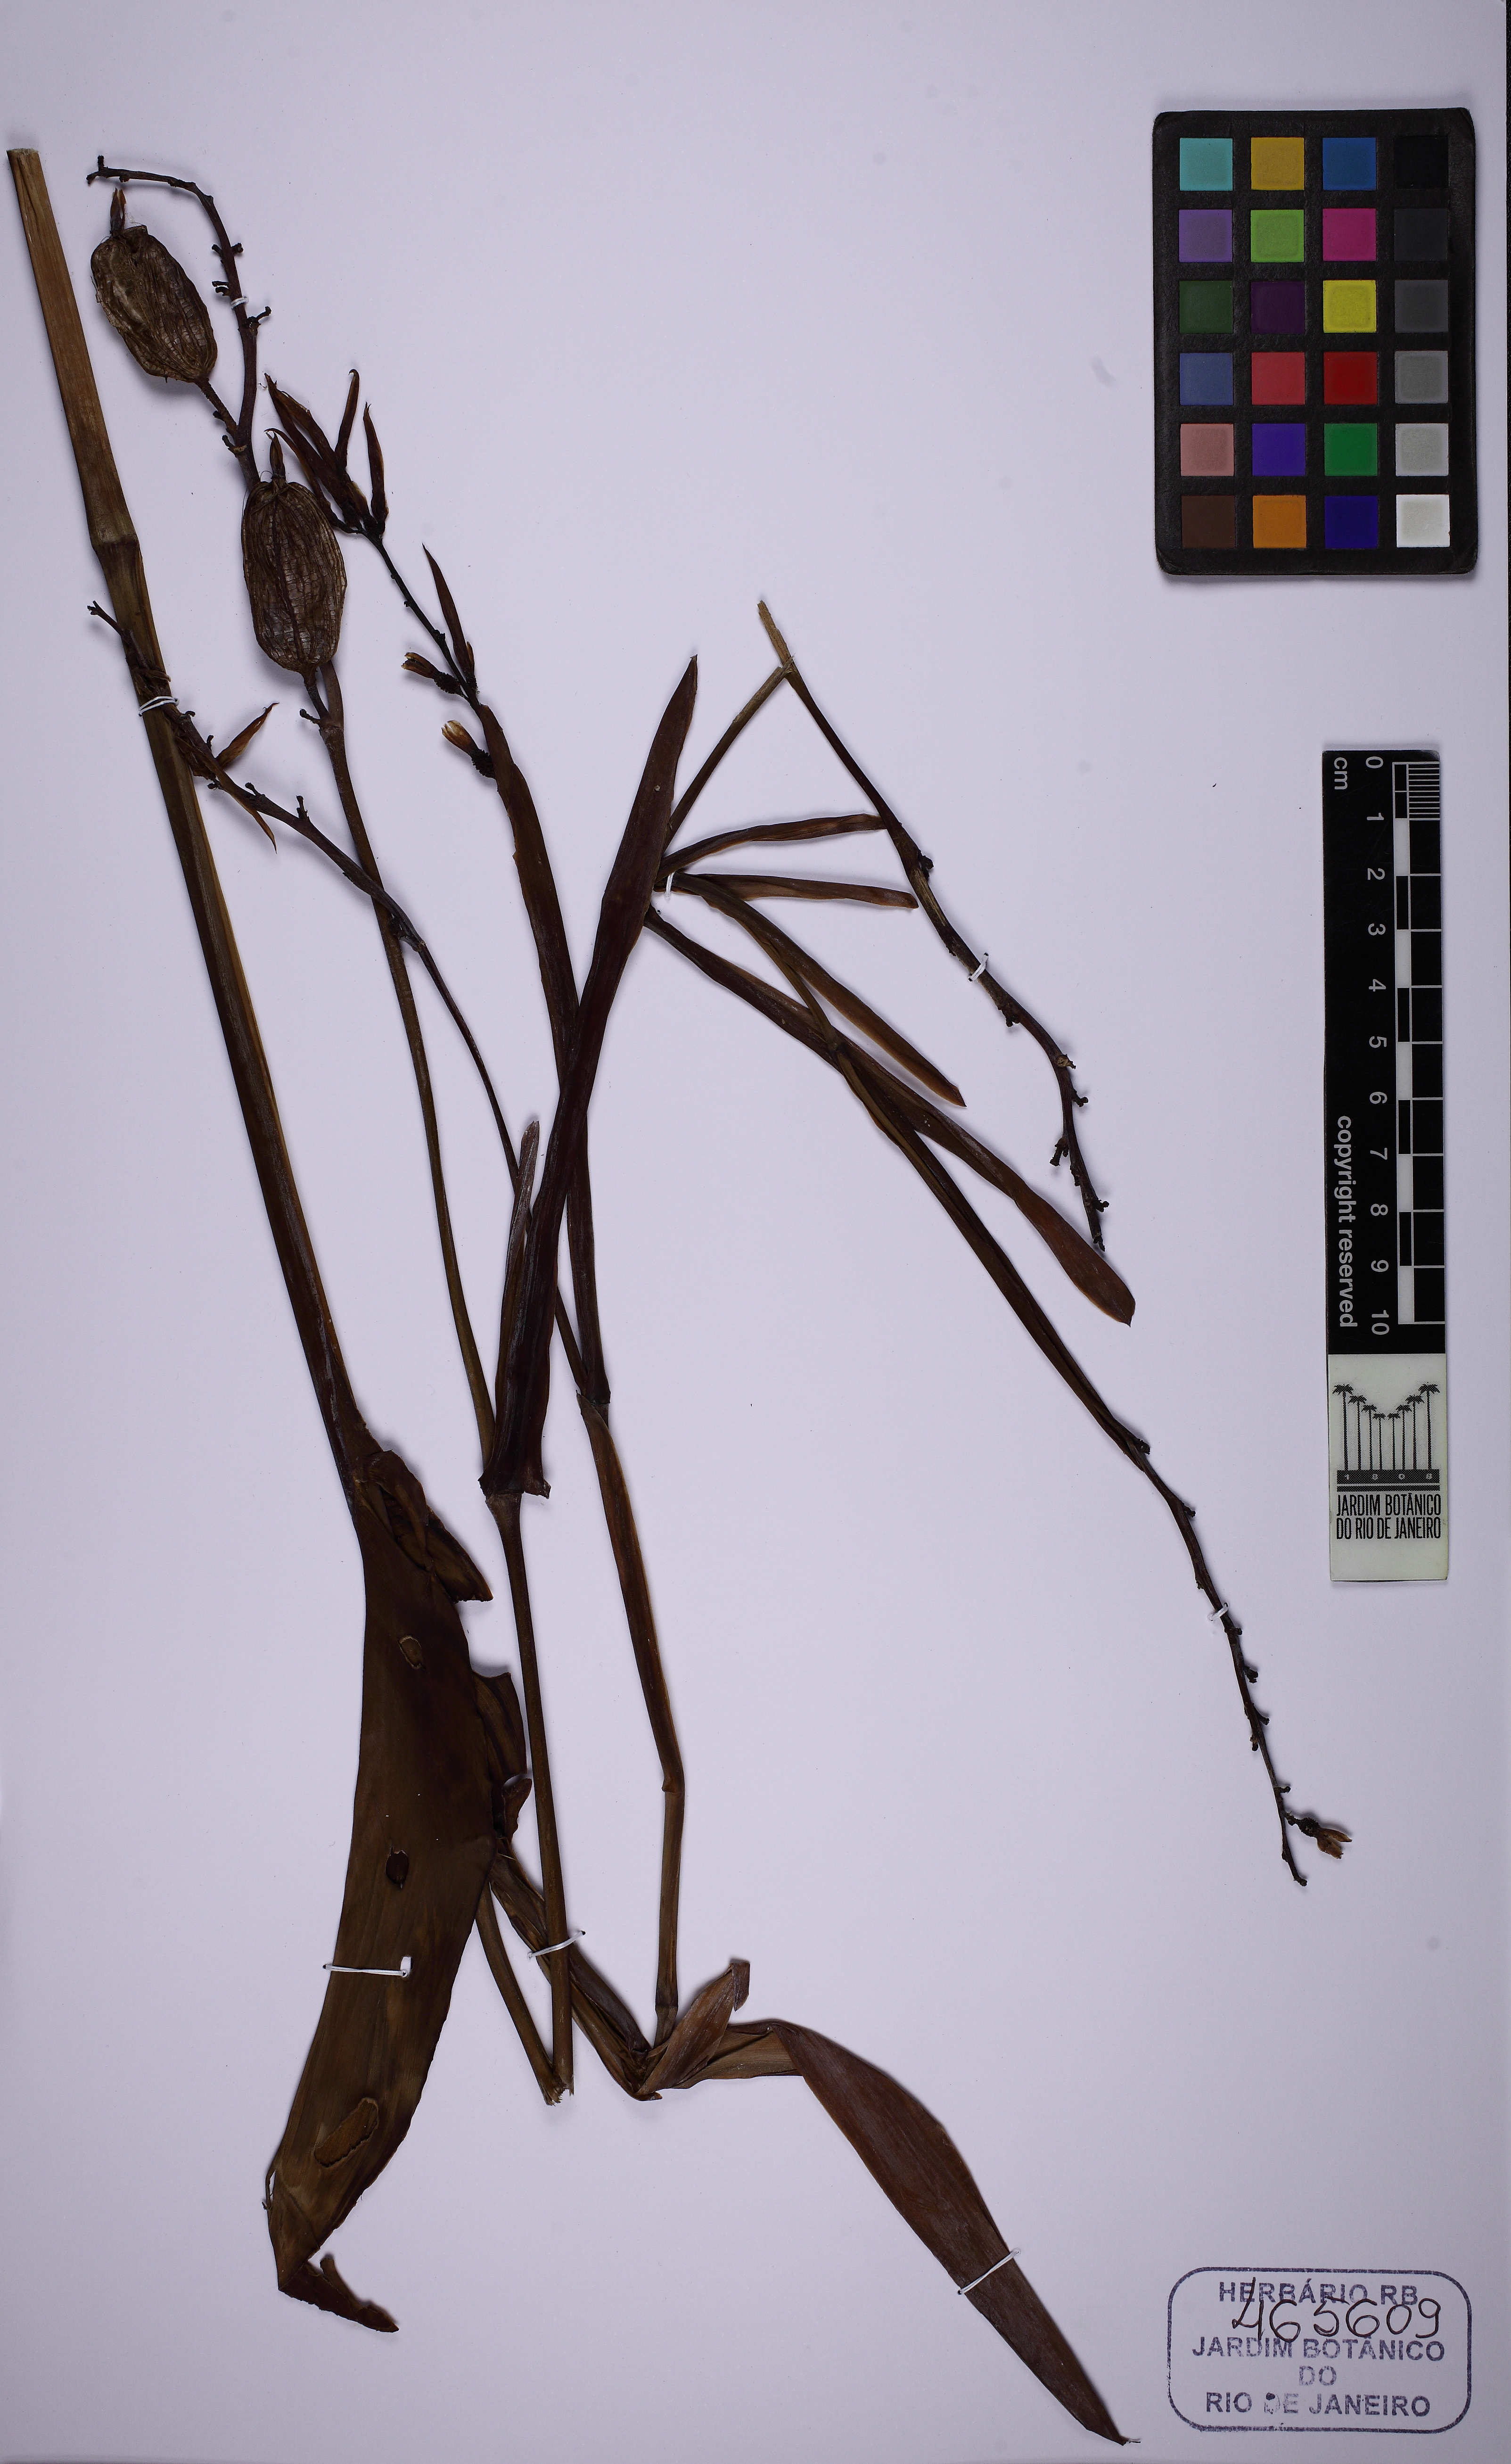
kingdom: Plantae
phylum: Tracheophyta
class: Liliopsida
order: Zingiberales
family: Cannaceae
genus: Canna
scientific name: Canna indica
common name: Indian shot
